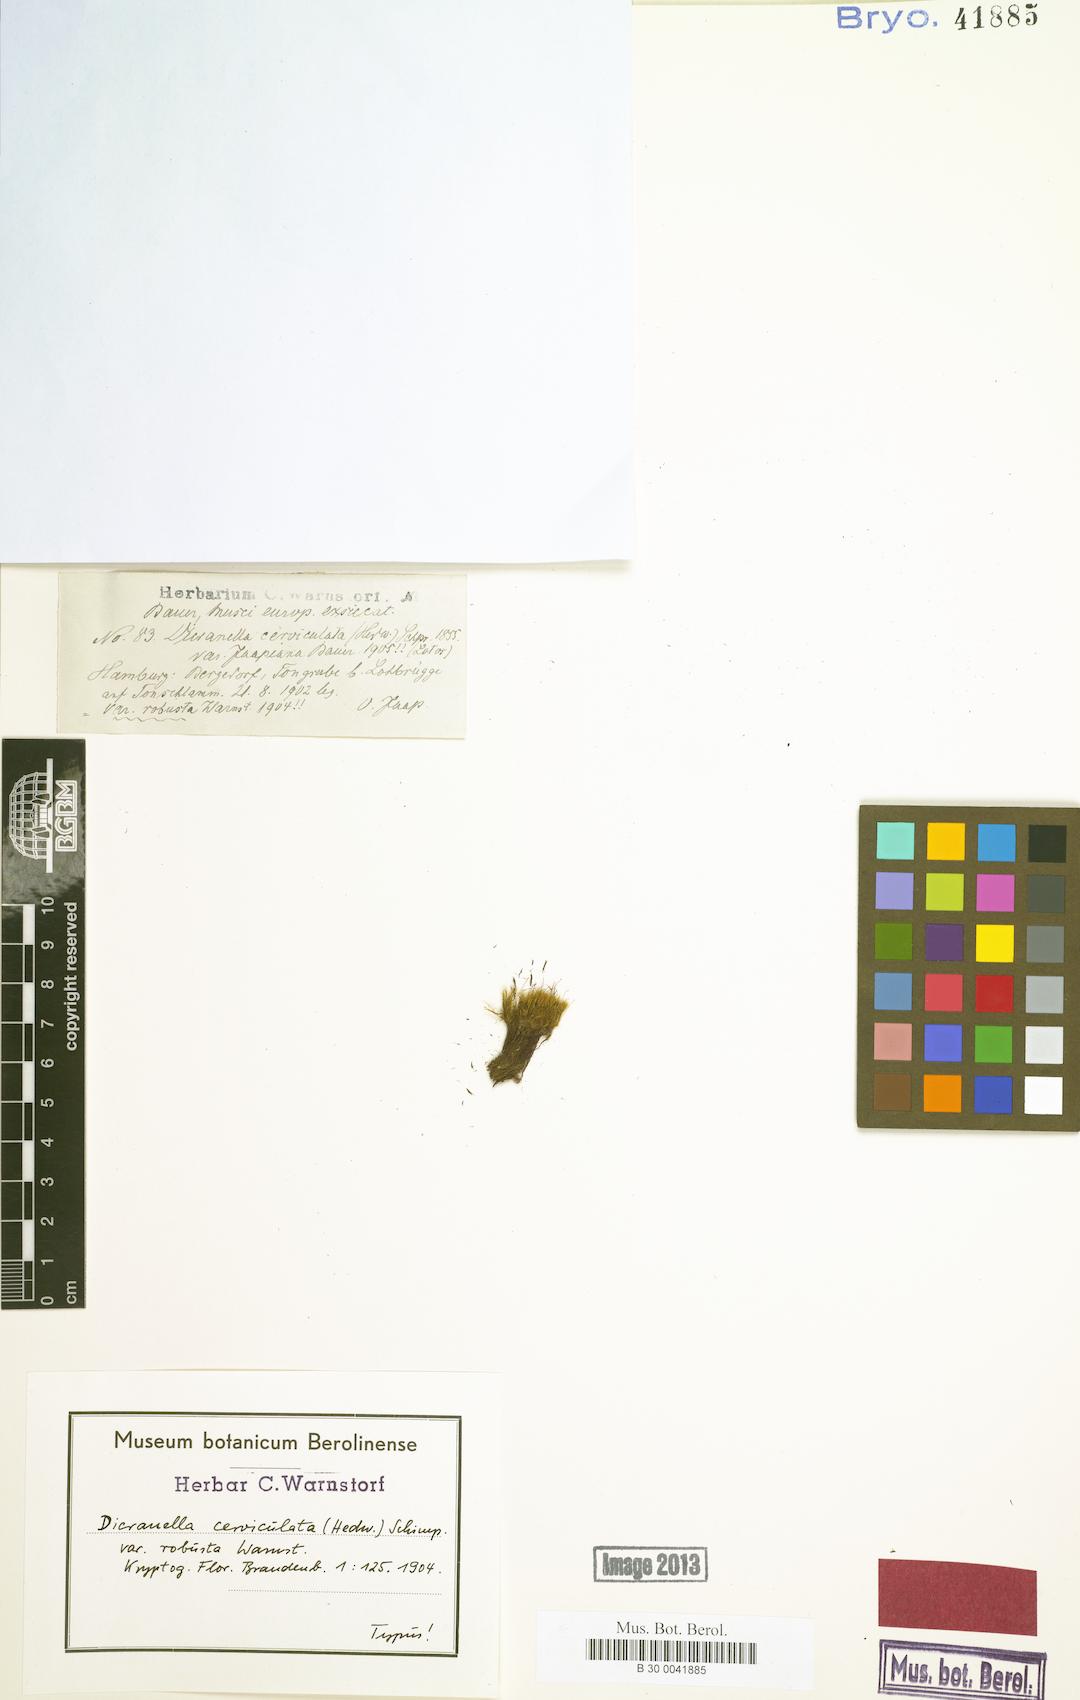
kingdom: Plantae
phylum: Bryophyta
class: Bryopsida
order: Dicranales
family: Dicranellaceae
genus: Dicranella
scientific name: Dicranella cerviculata
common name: Spur-necked forklet moss
